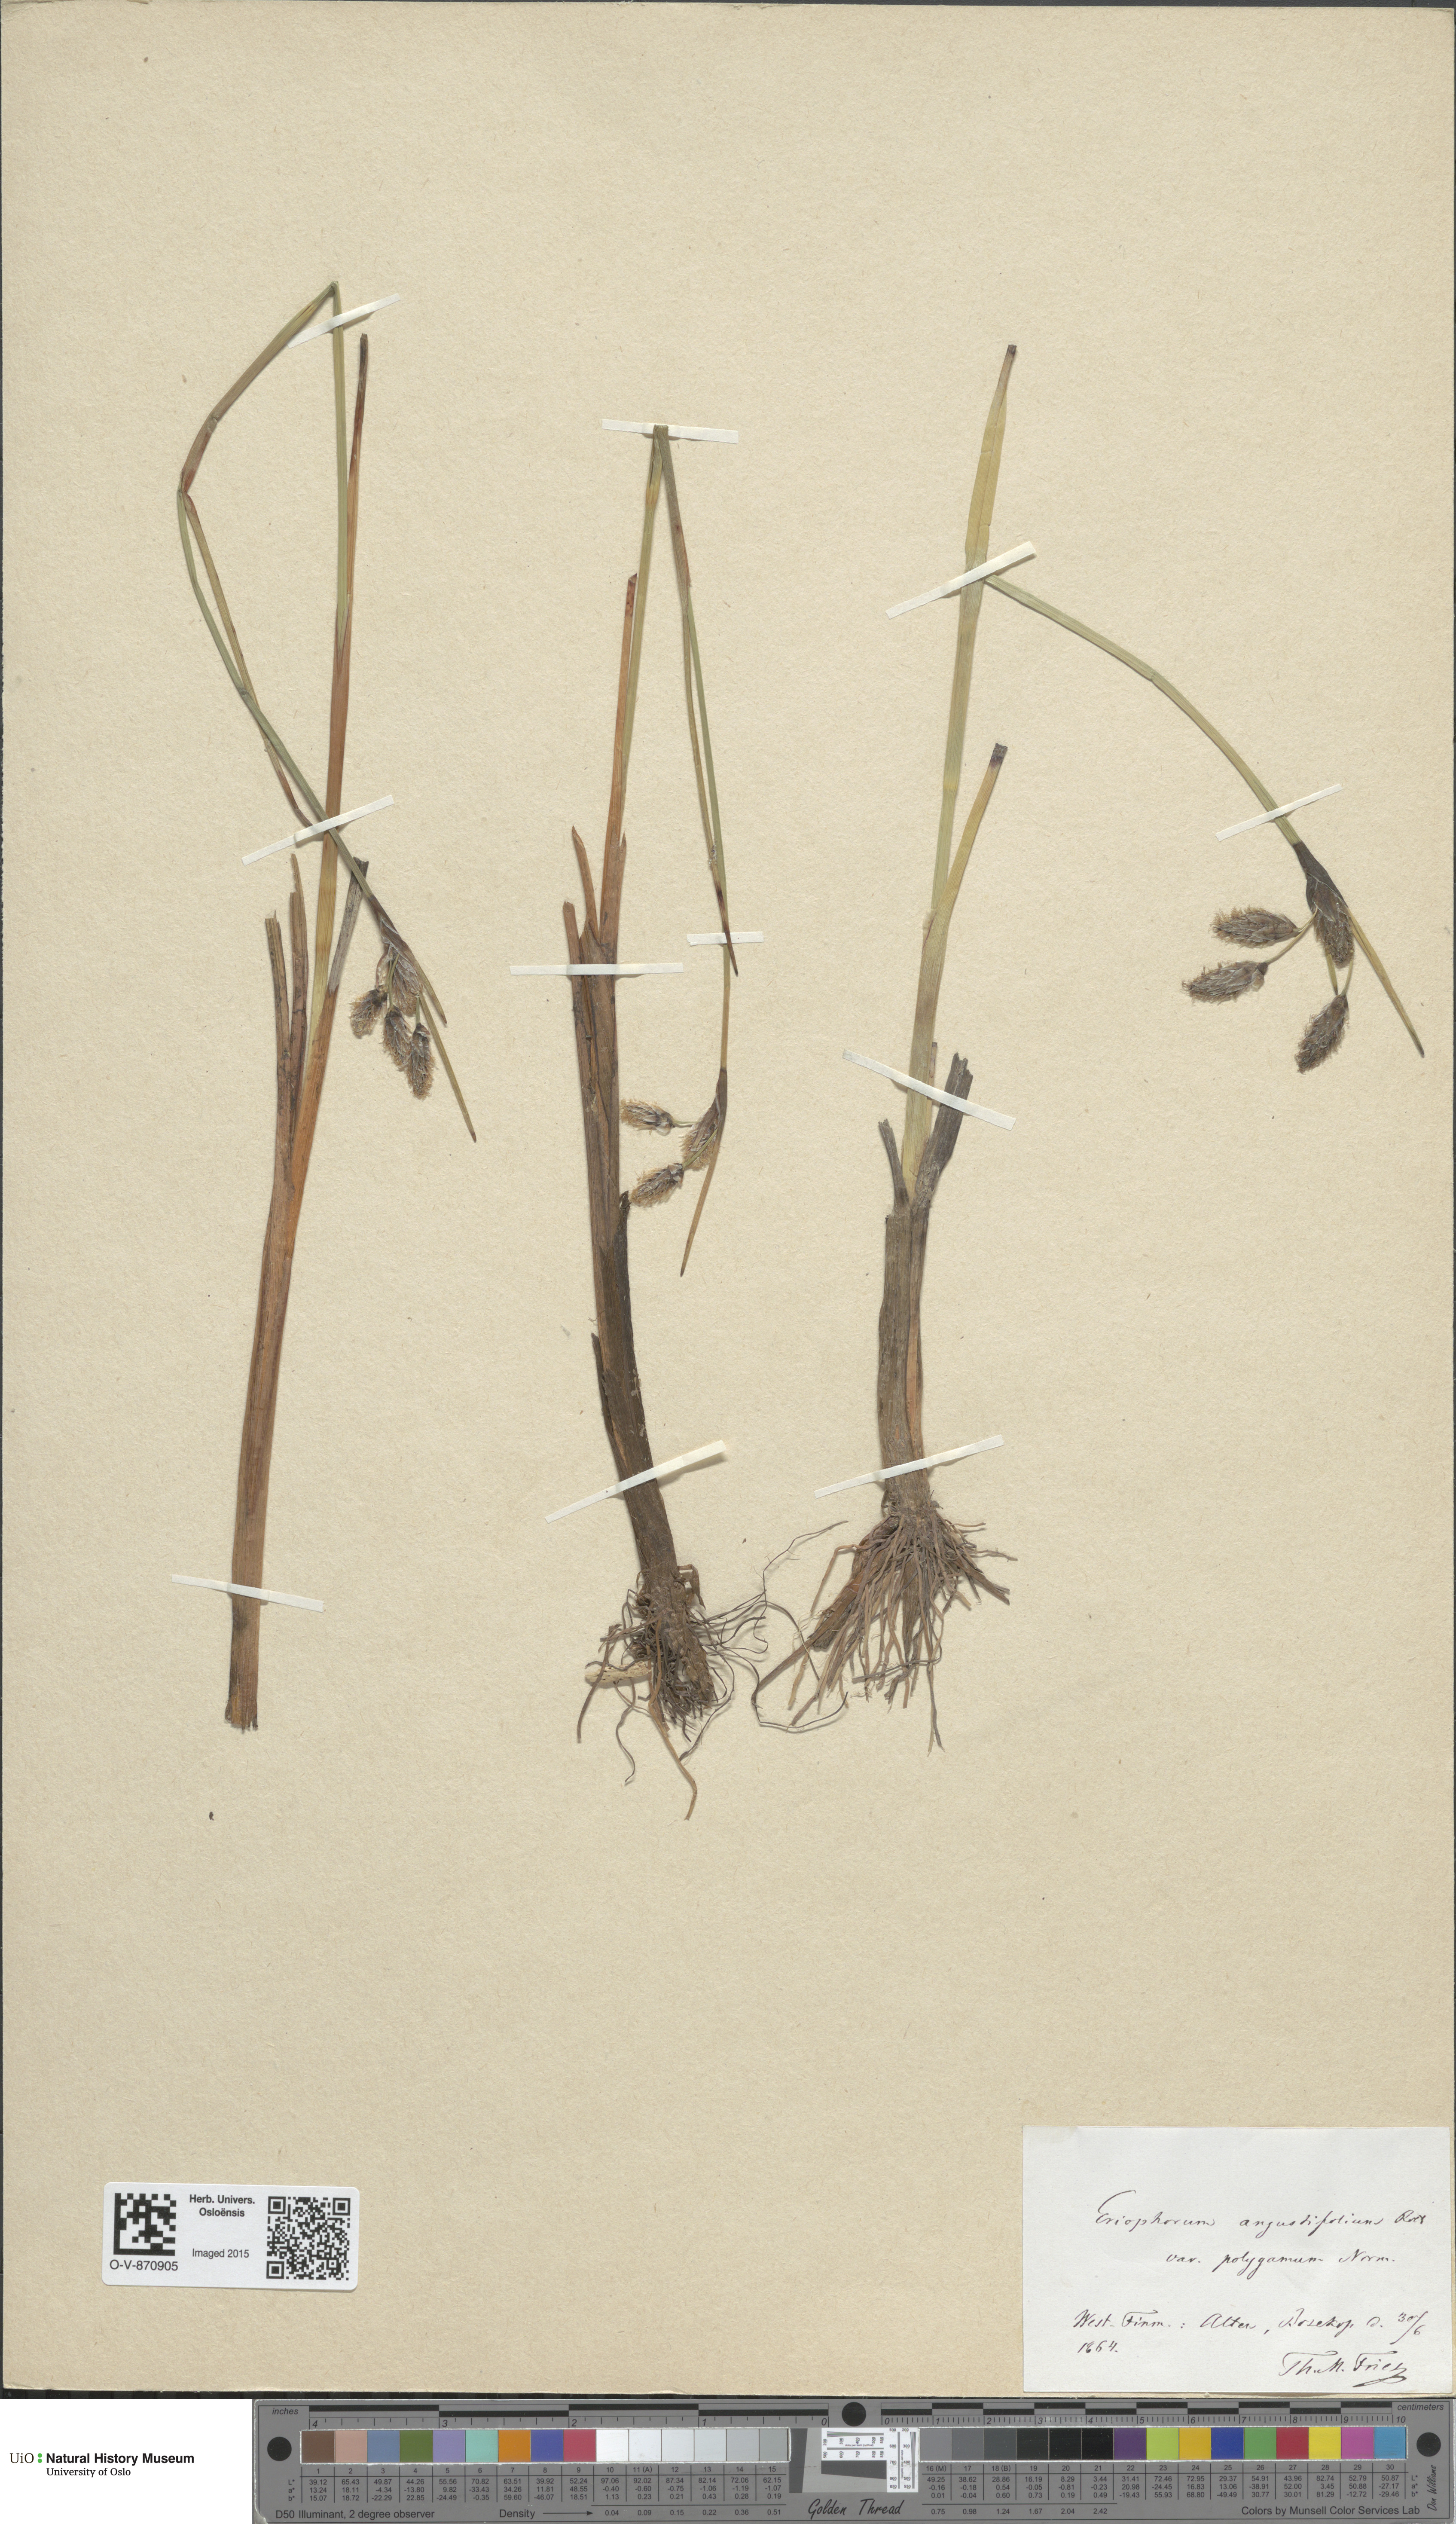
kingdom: Plantae
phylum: Tracheophyta
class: Liliopsida
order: Poales
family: Cyperaceae
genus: Eriophorum
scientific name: Eriophorum angustifolium
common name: Common cottongrass
